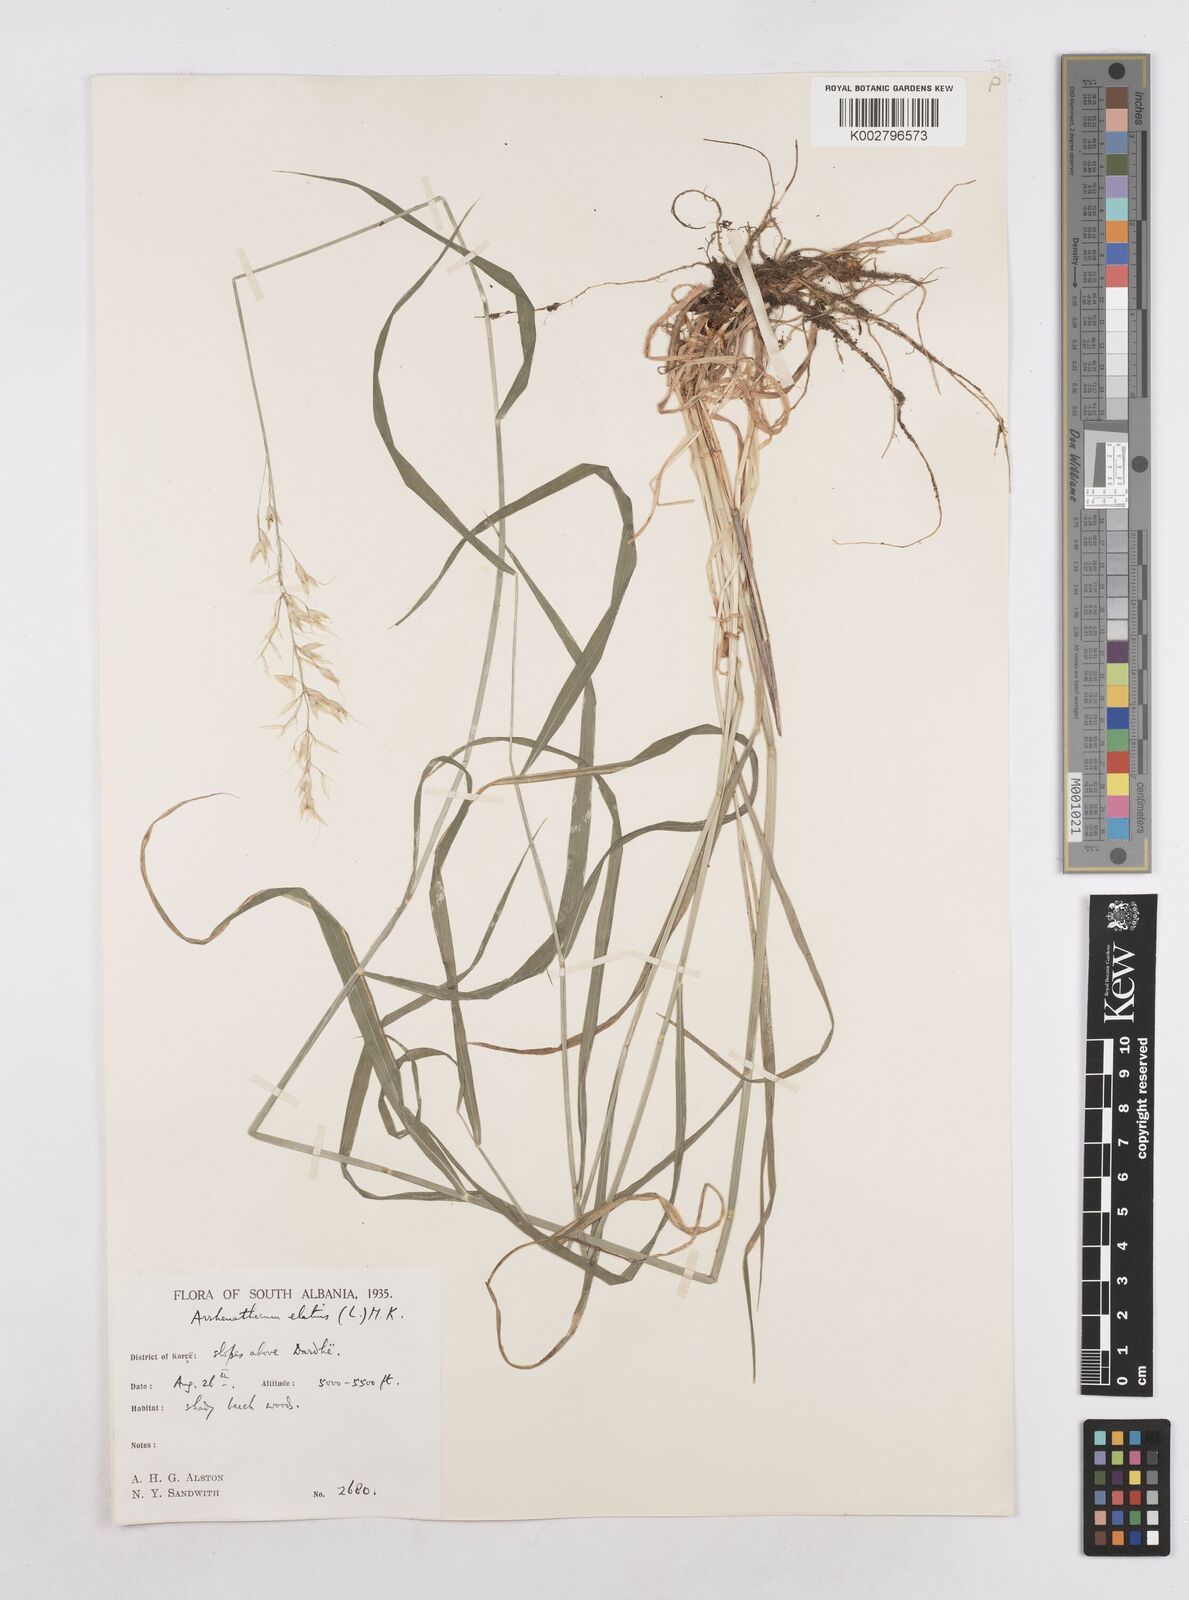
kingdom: Plantae
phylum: Tracheophyta
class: Liliopsida
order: Poales
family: Poaceae
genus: Arrhenatherum
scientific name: Arrhenatherum elatius
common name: Tall oatgrass
